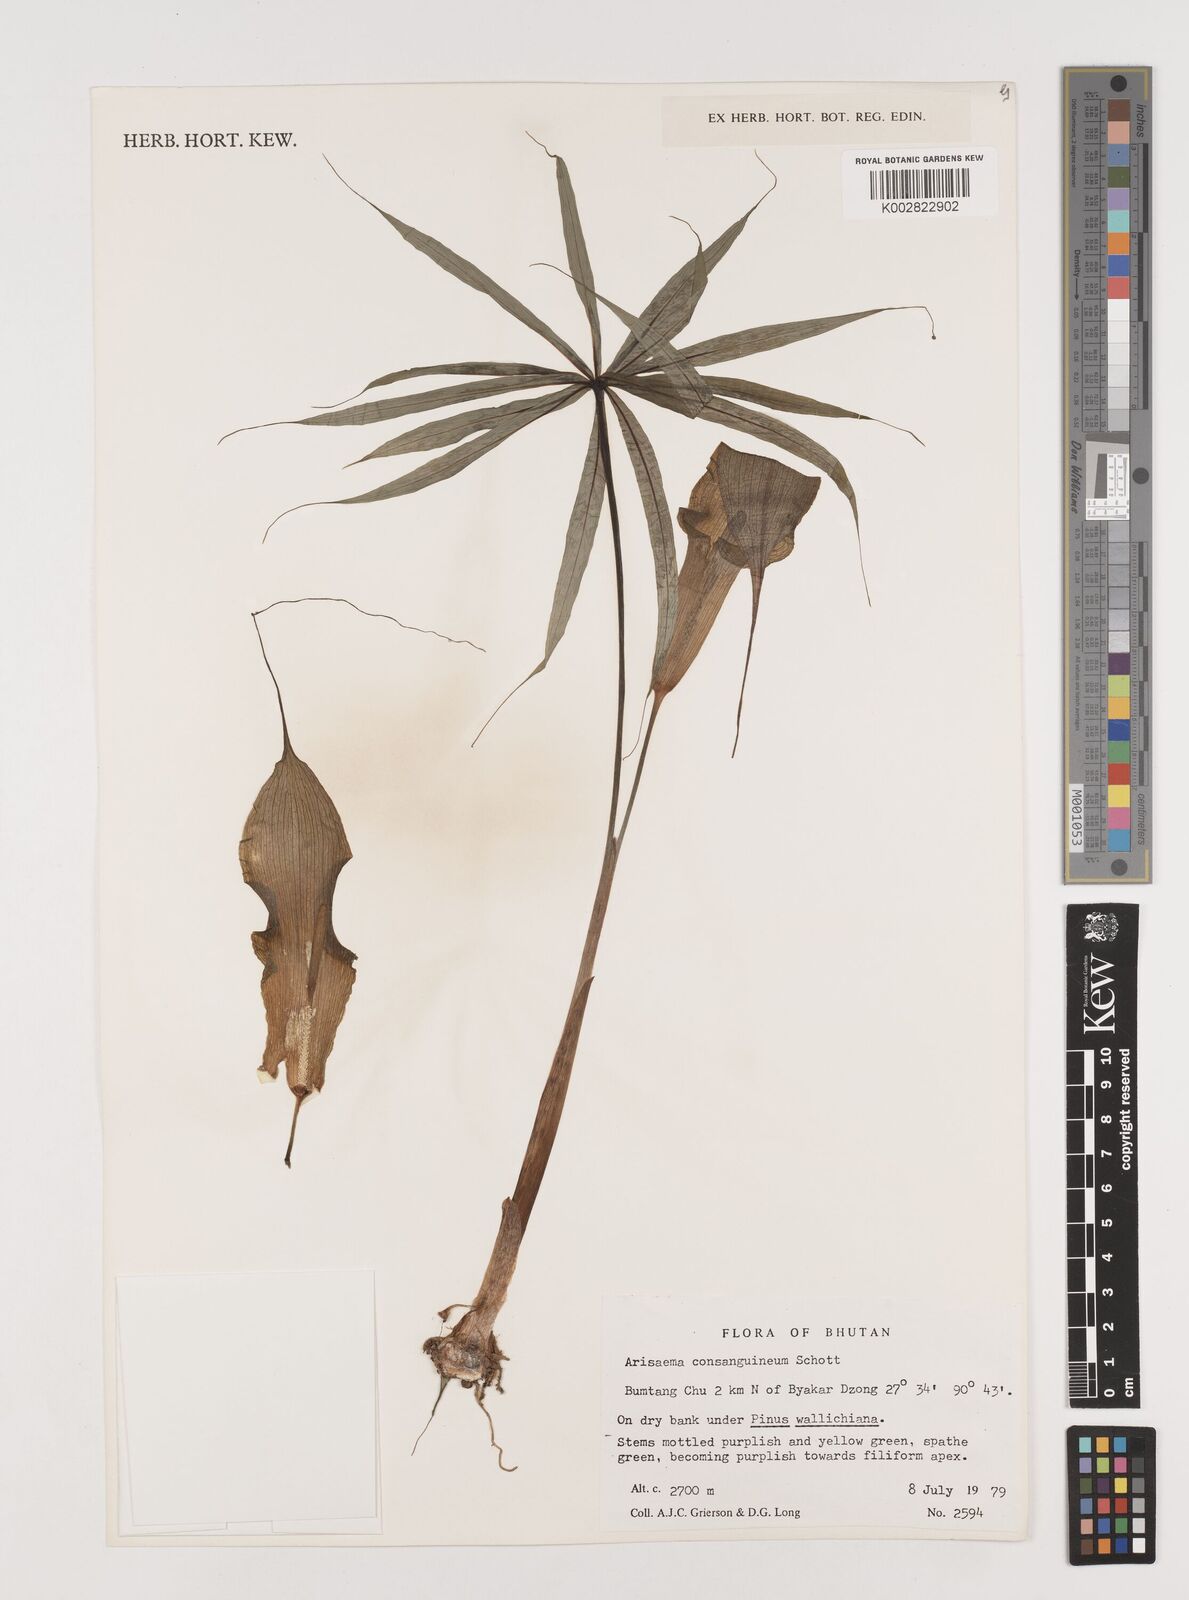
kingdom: Plantae
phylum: Tracheophyta
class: Liliopsida
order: Alismatales
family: Araceae
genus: Arisaema
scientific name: Arisaema erubescens
